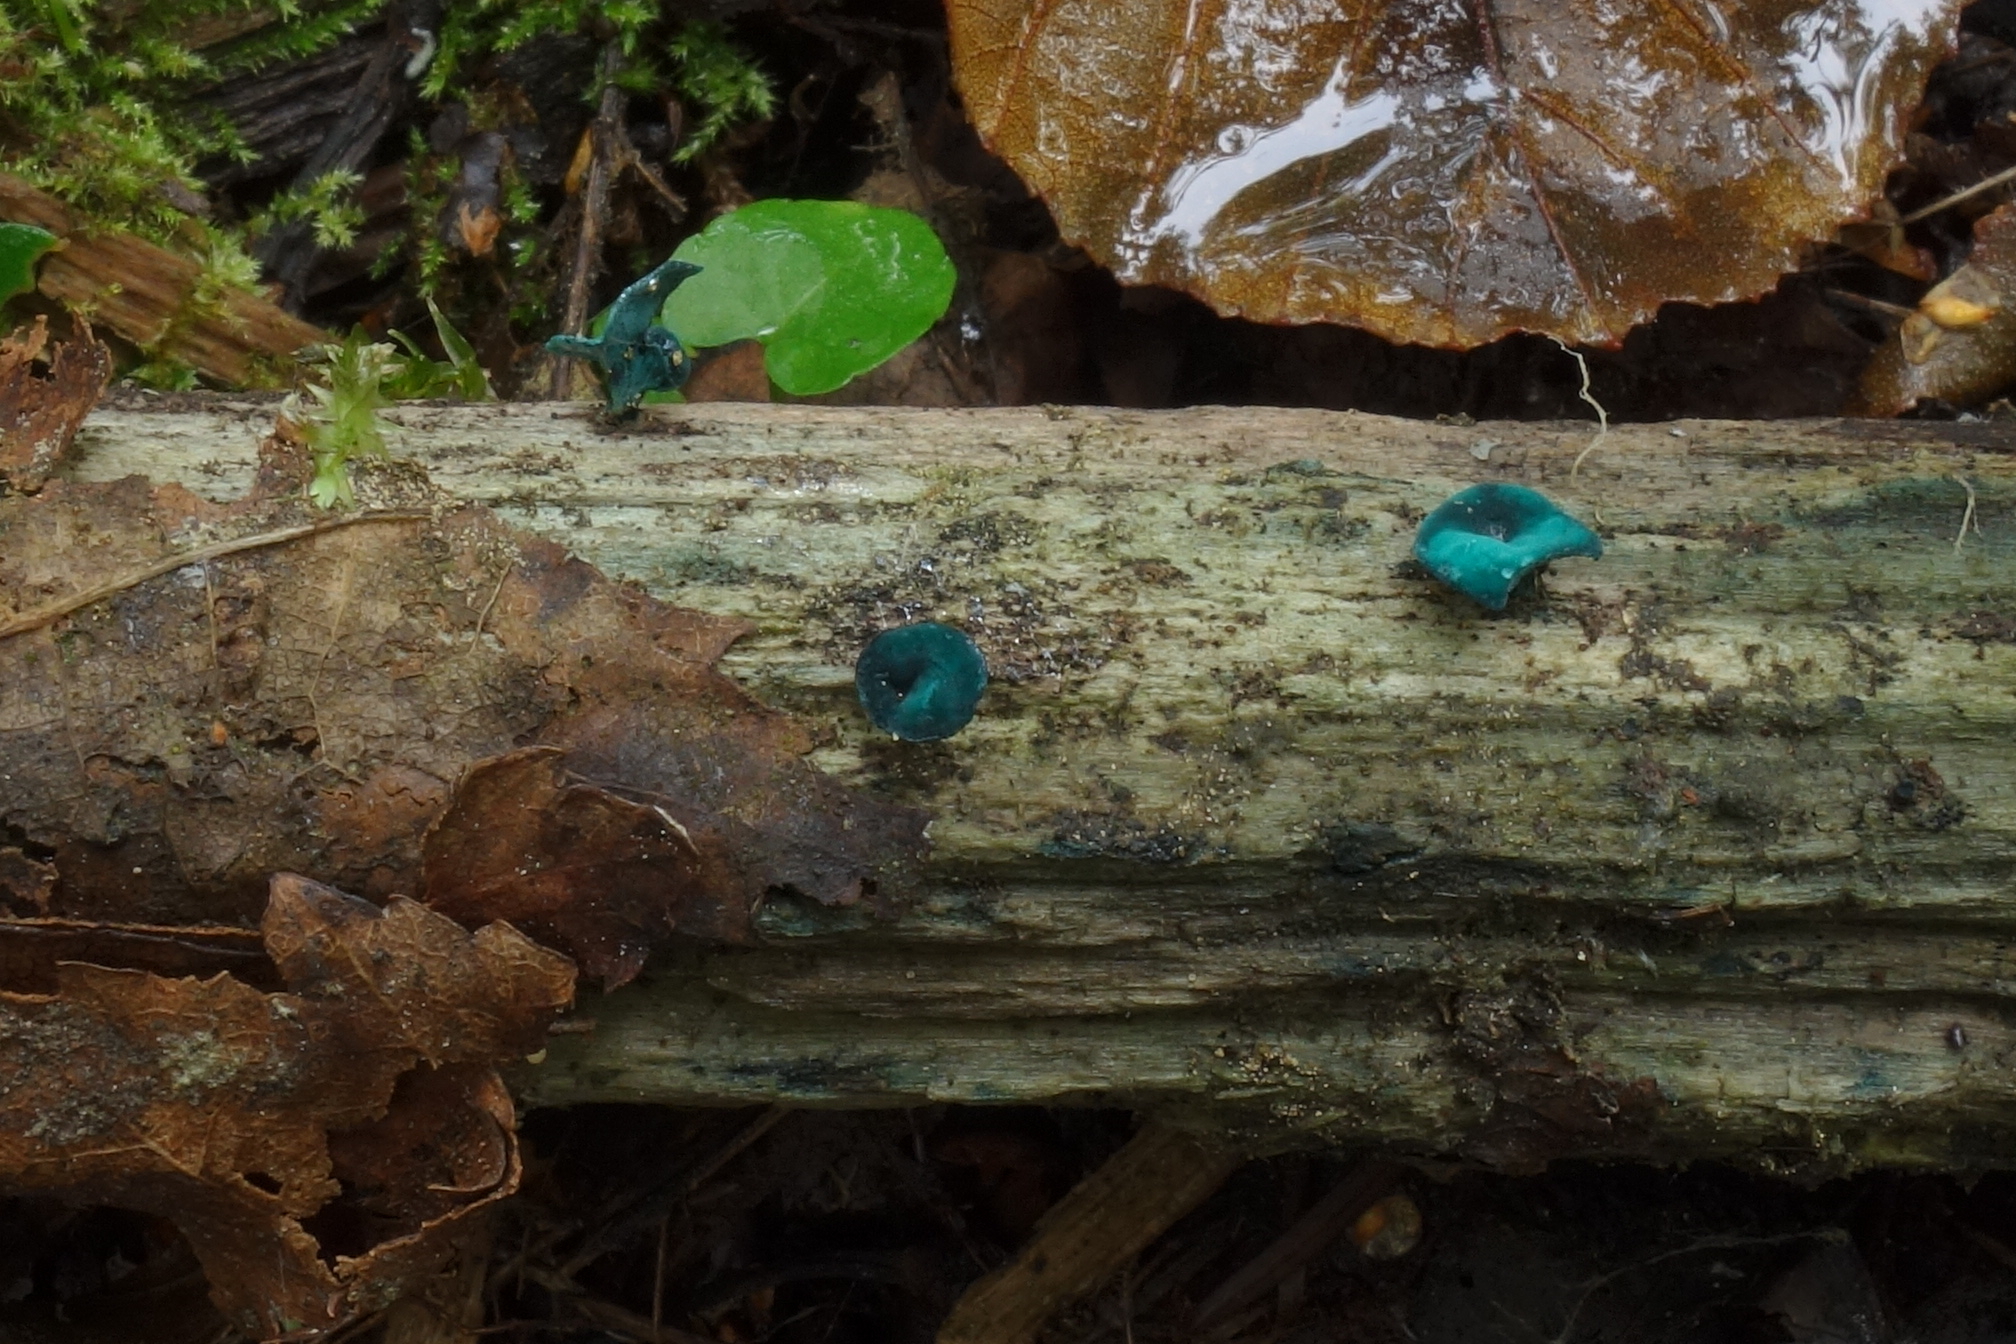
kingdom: Fungi
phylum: Ascomycota
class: Leotiomycetes
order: Helotiales
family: Chlorociboriaceae
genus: Chlorociboria
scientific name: Chlorociboria aeruginascens
